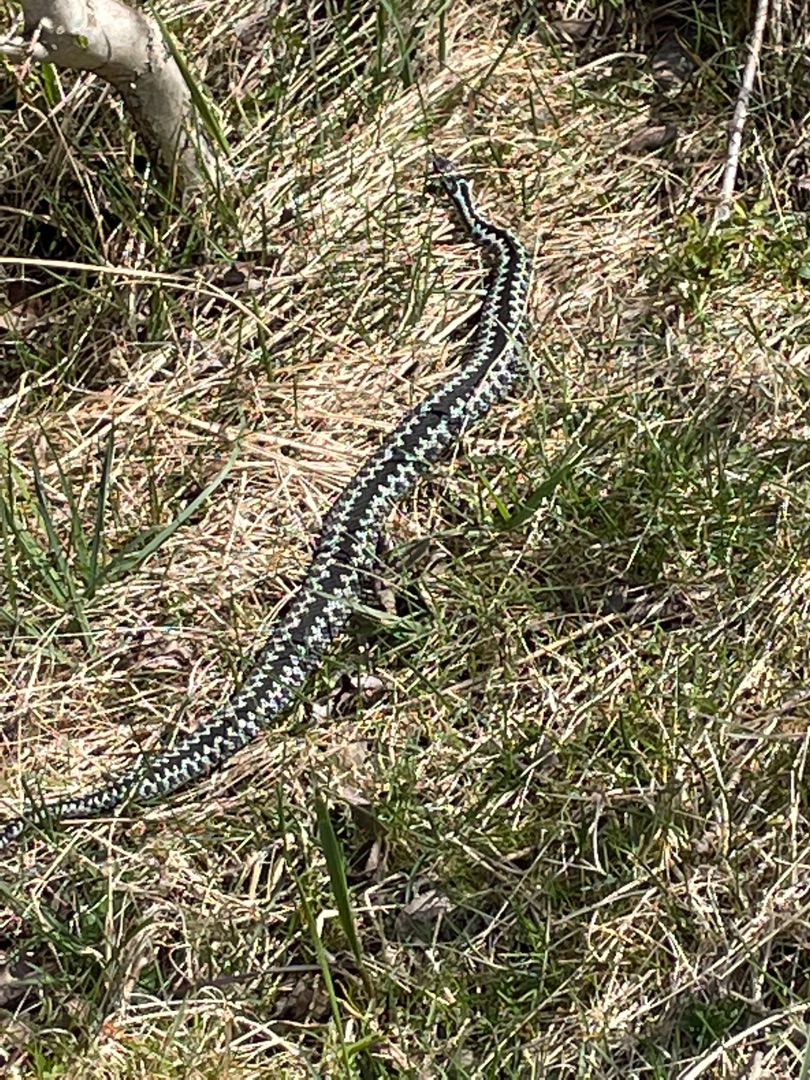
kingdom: Animalia
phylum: Chordata
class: Squamata
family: Viperidae
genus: Vipera
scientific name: Vipera berus
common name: Hugorm
